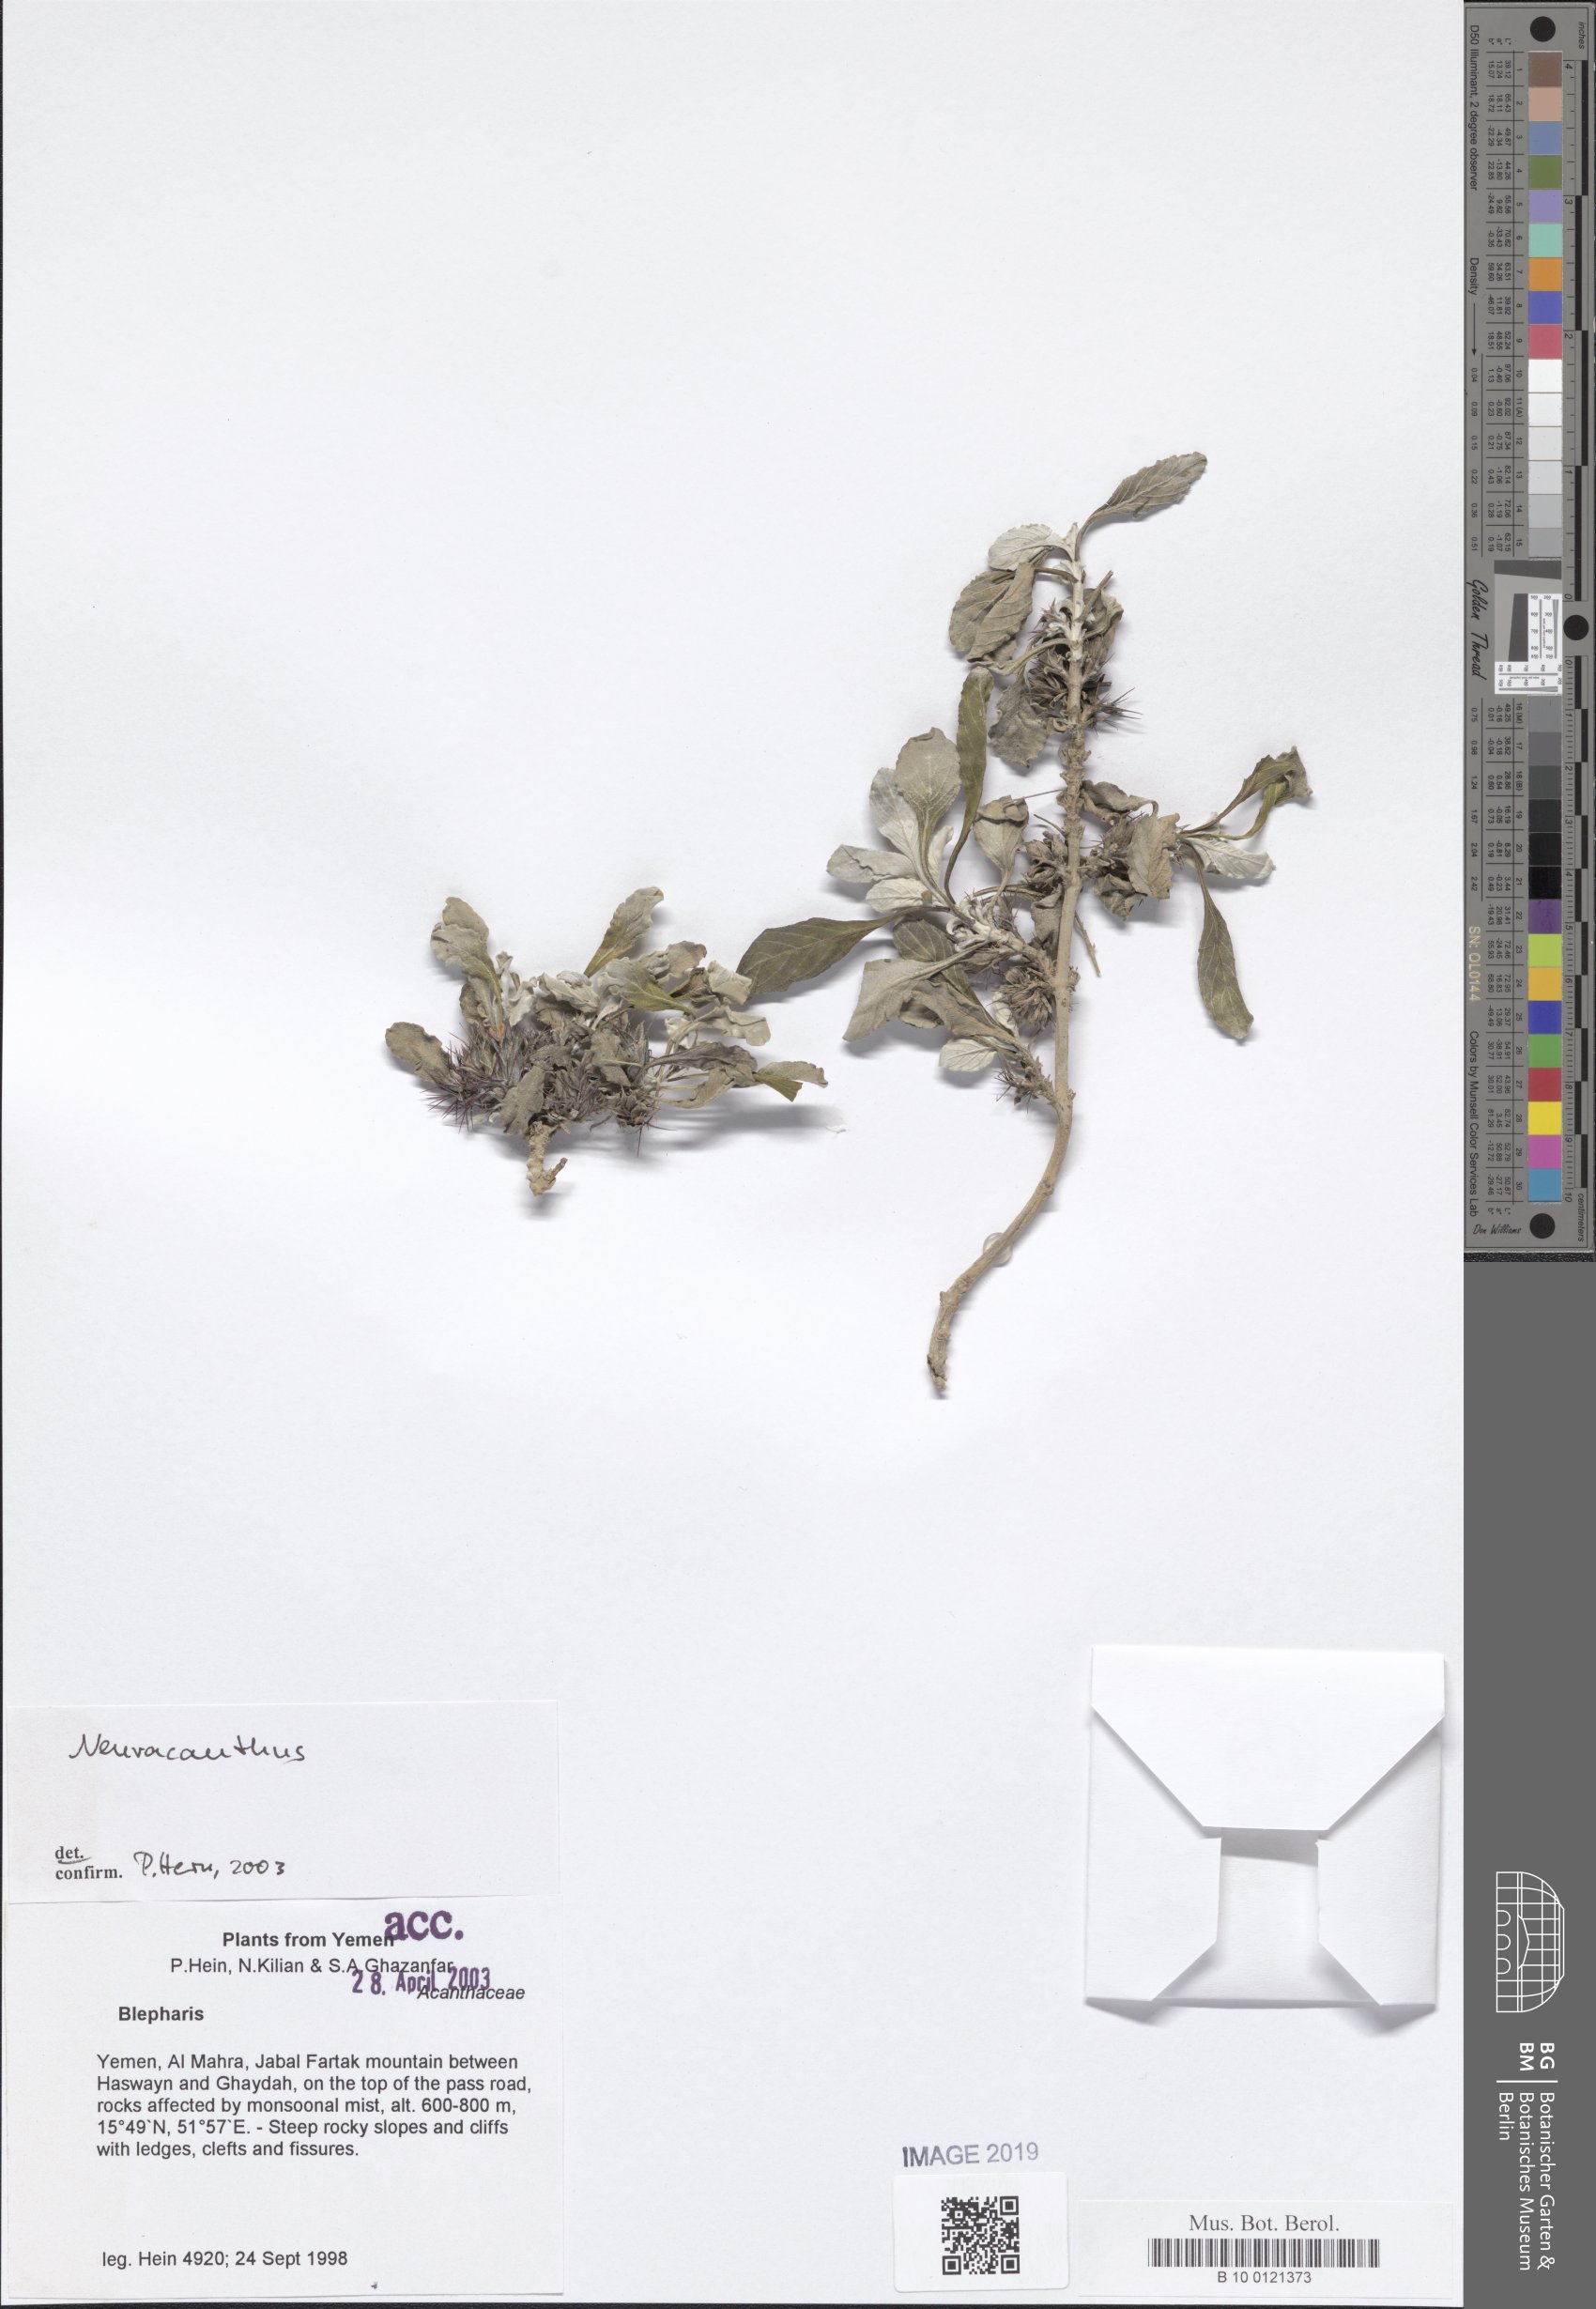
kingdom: Plantae
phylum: Tracheophyta
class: Magnoliopsida
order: Lamiales
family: Acanthaceae
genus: Neuracanthus
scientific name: Neuracanthus
